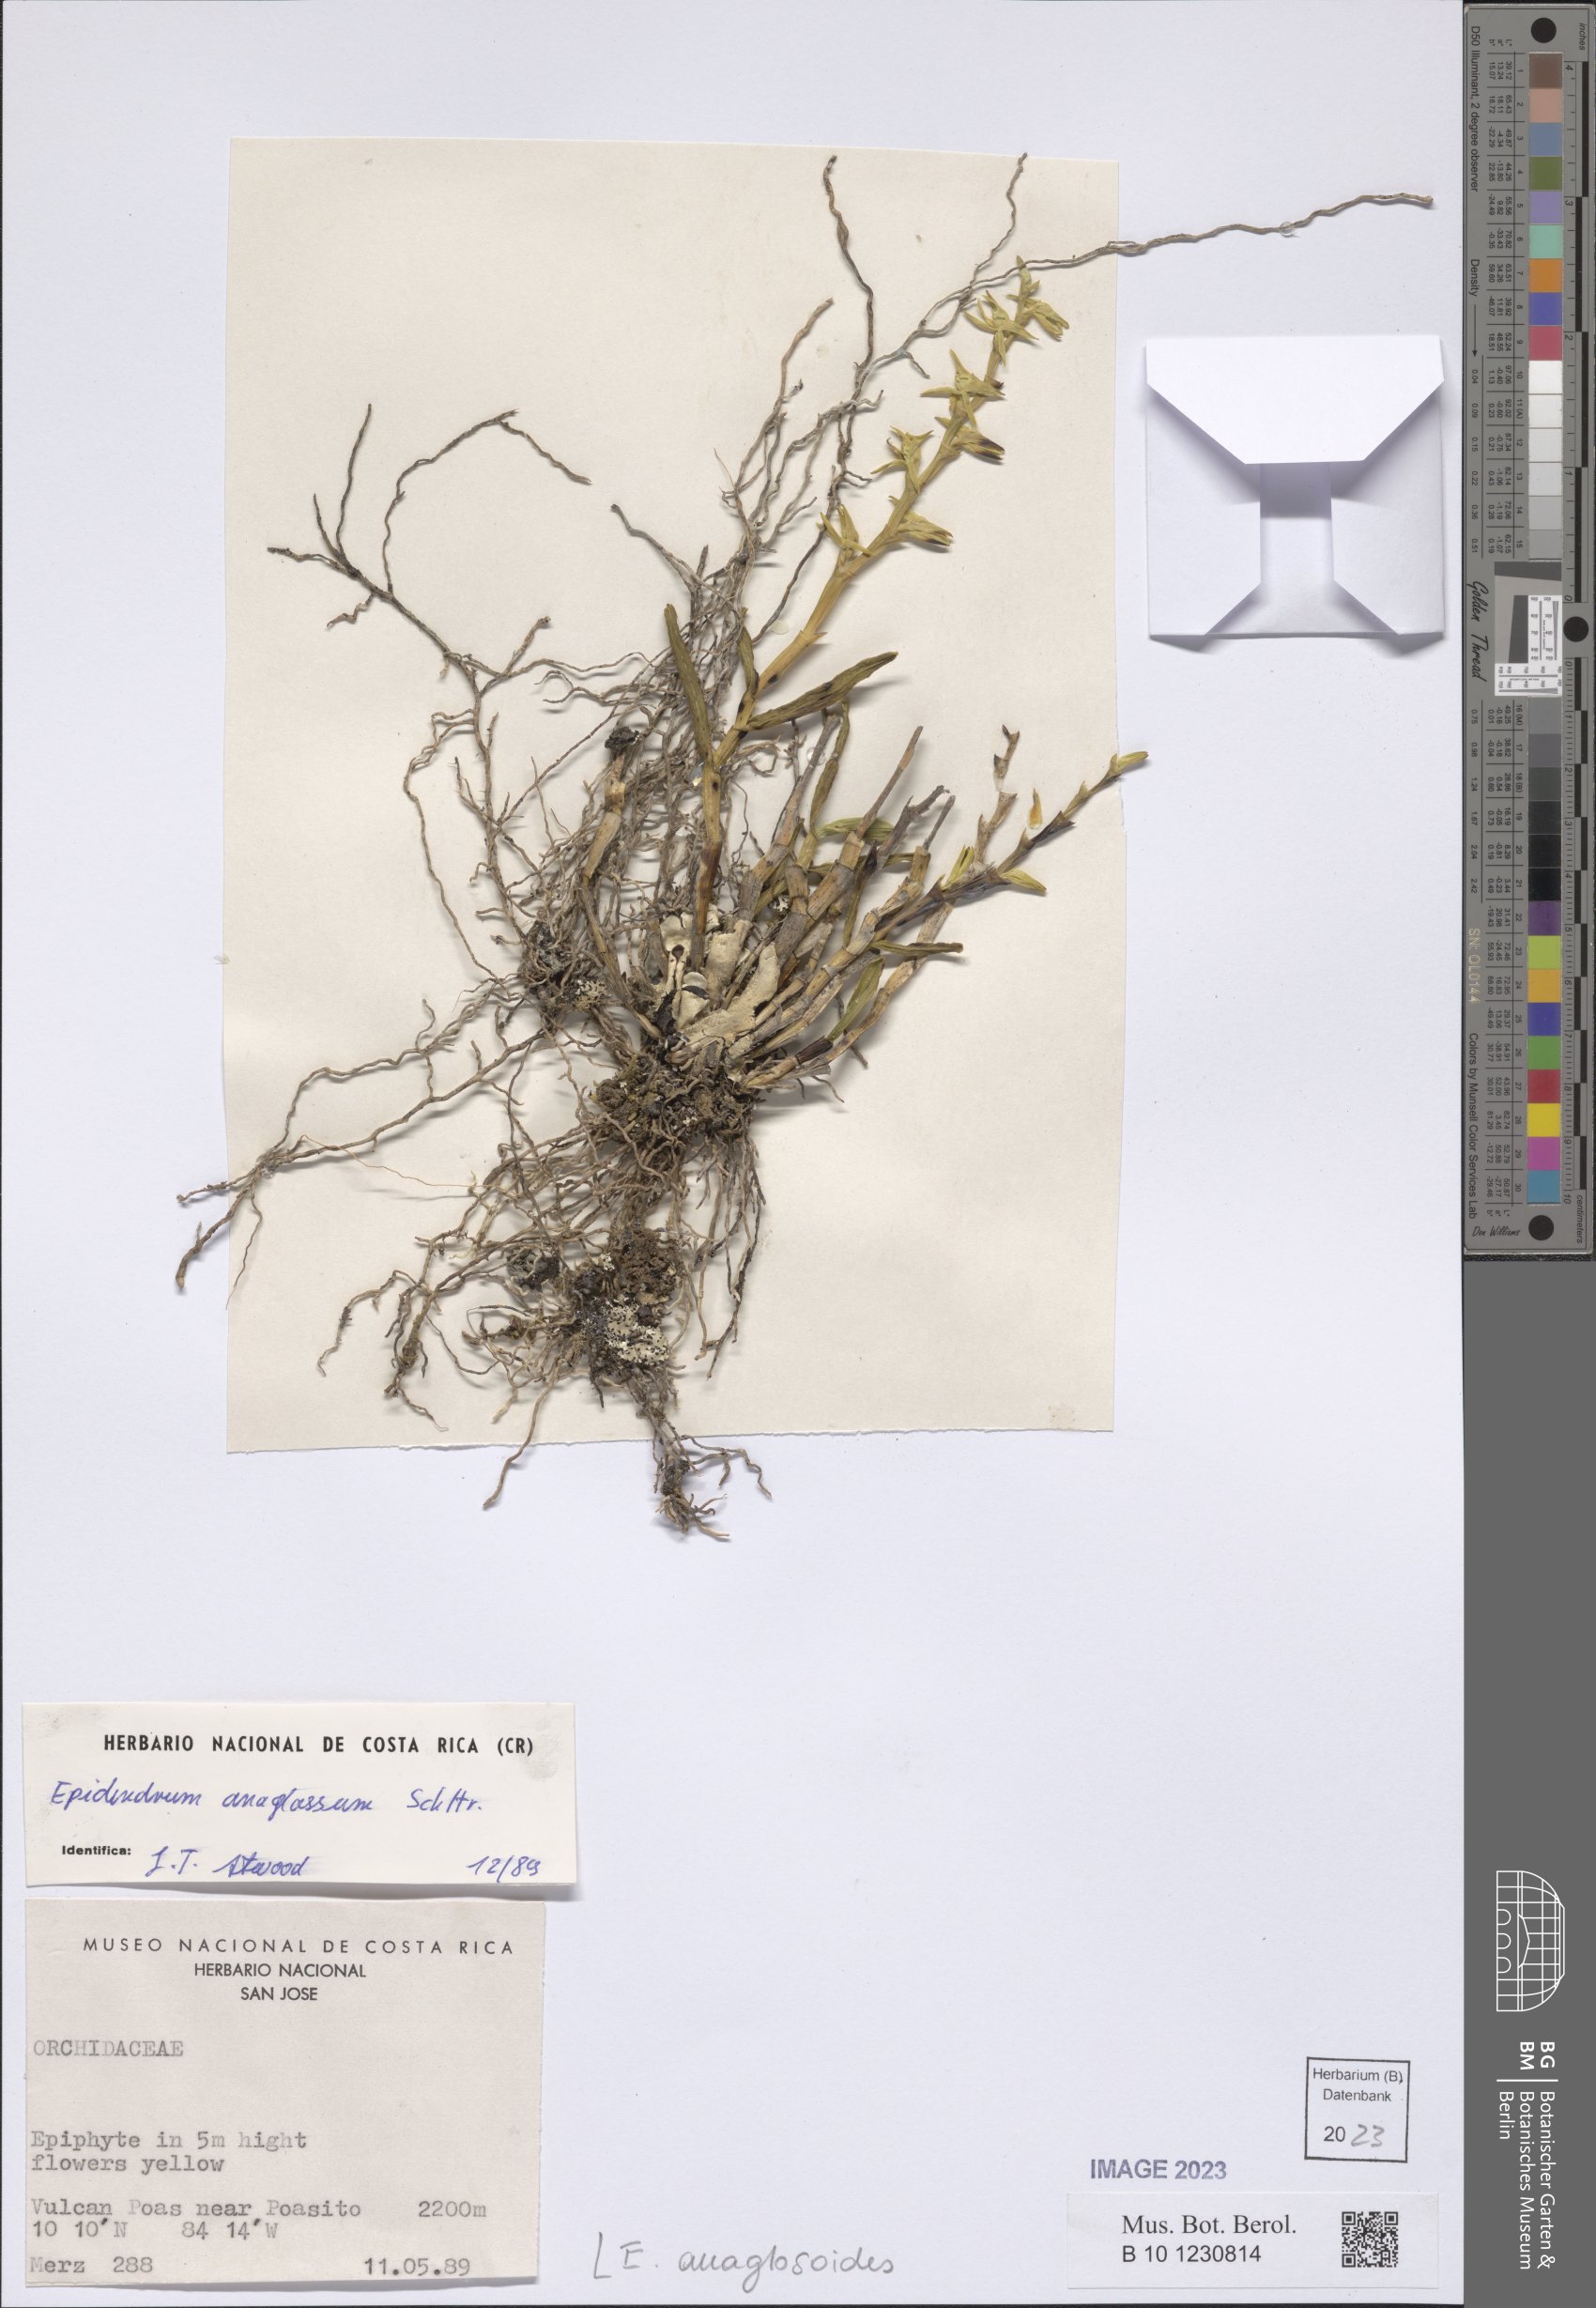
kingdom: Plantae
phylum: Tracheophyta
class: Liliopsida
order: Asparagales
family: Orchidaceae
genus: Epidendrum
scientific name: Epidendrum anaglosoides
